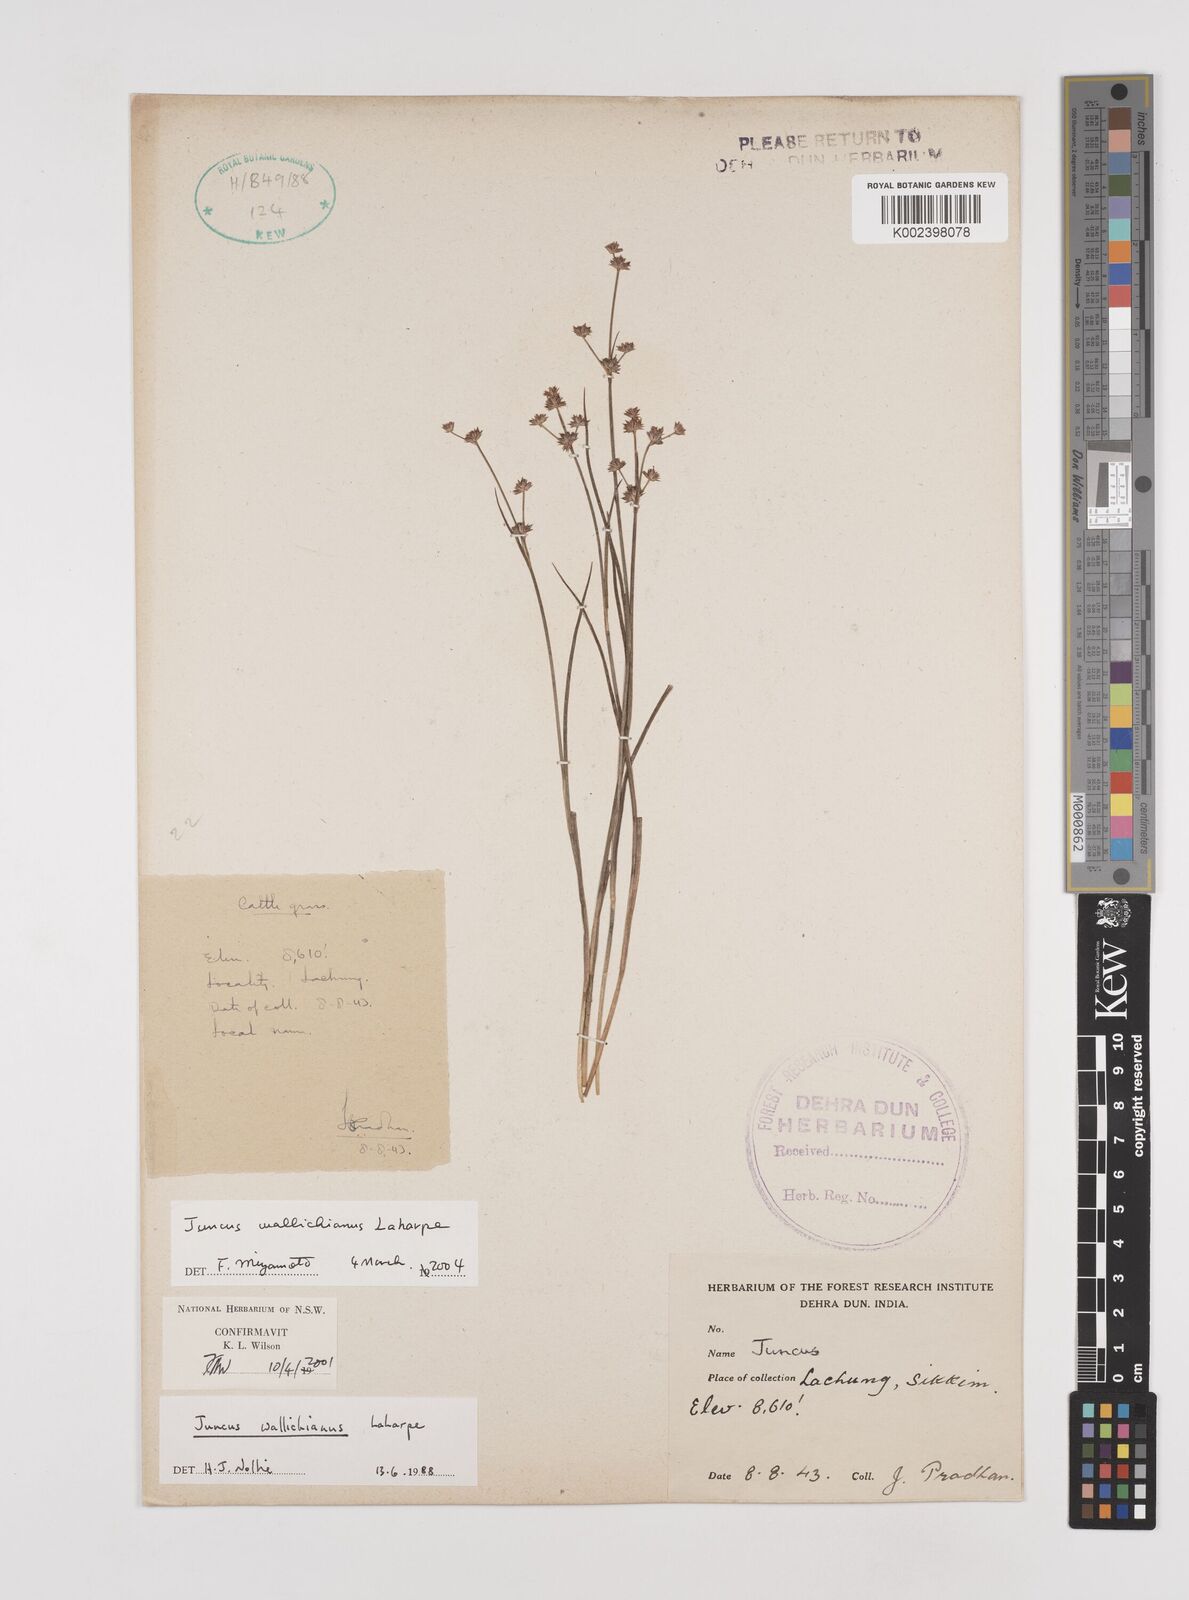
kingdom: Plantae
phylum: Tracheophyta
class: Liliopsida
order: Poales
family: Juncaceae
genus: Juncus
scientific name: Juncus wallichianus
